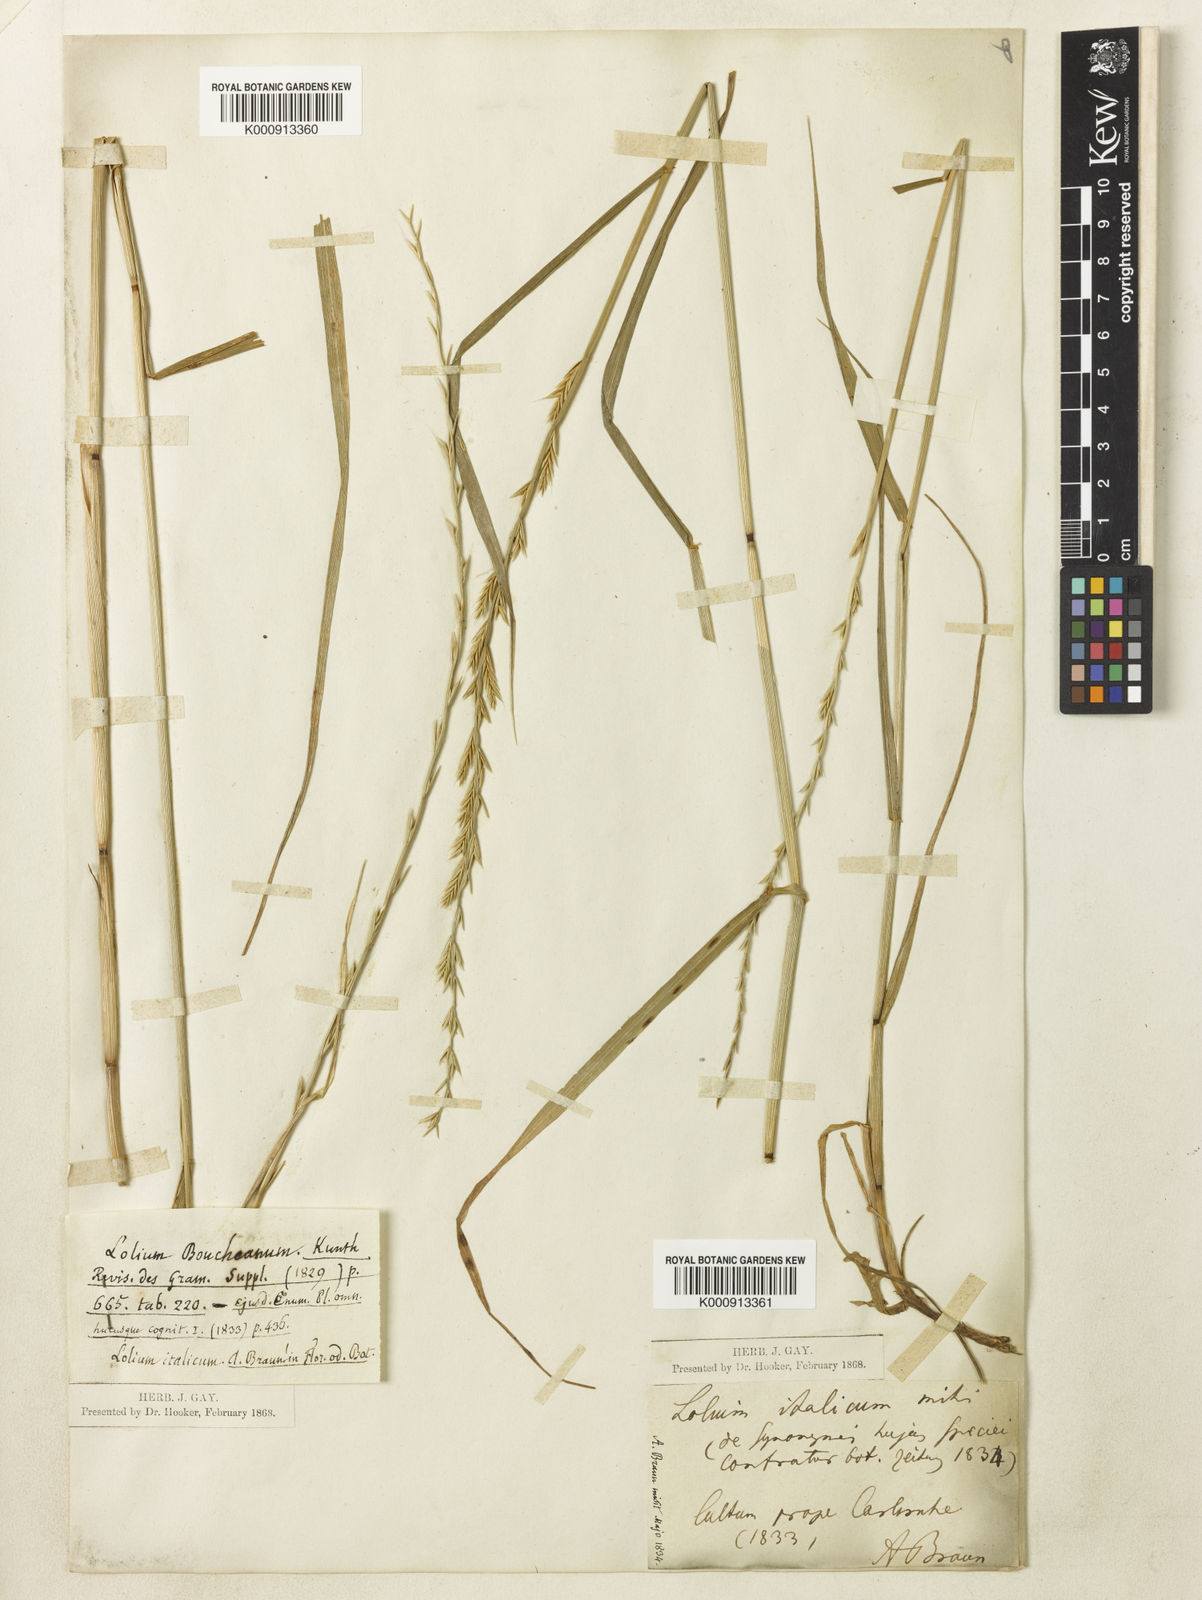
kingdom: Plantae
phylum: Tracheophyta
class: Liliopsida
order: Poales
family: Poaceae
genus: Lolium
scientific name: Lolium multiflorum
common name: Annual ryegrass
